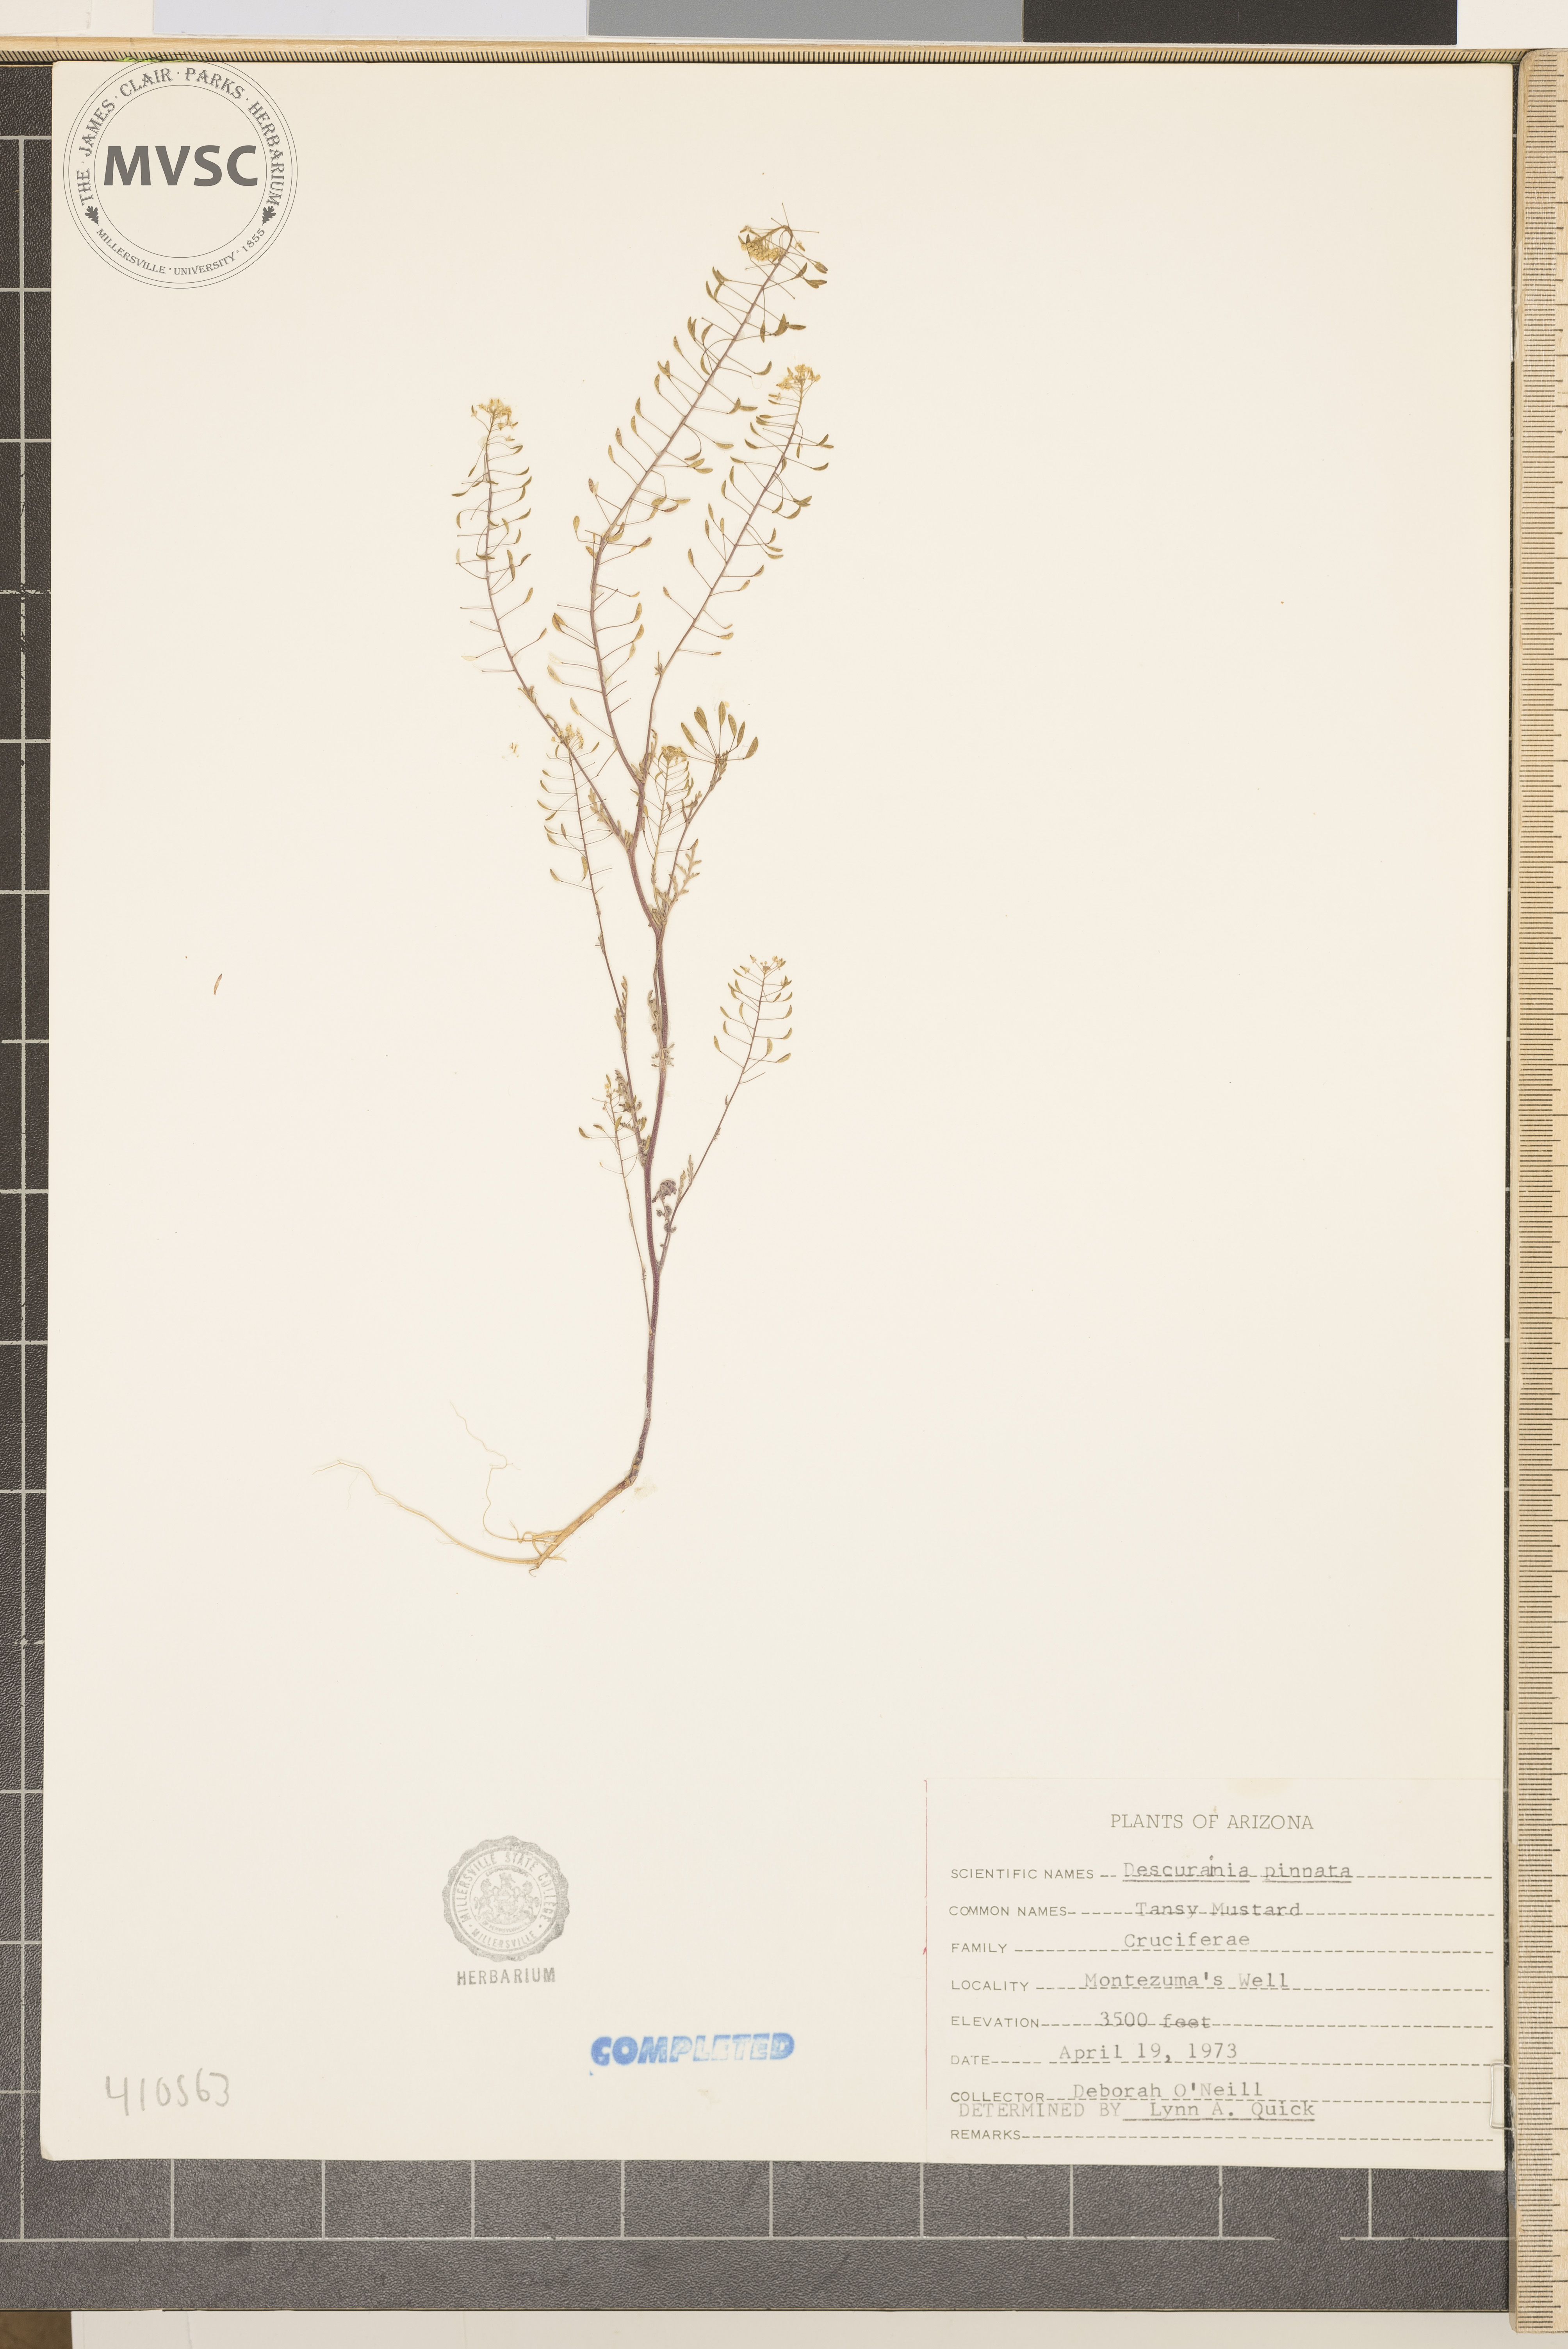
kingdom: Plantae
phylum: Tracheophyta
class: Magnoliopsida
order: Brassicales
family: Brassicaceae
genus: Descurainia
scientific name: Descurainia pinnata
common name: Western tansy mustard
